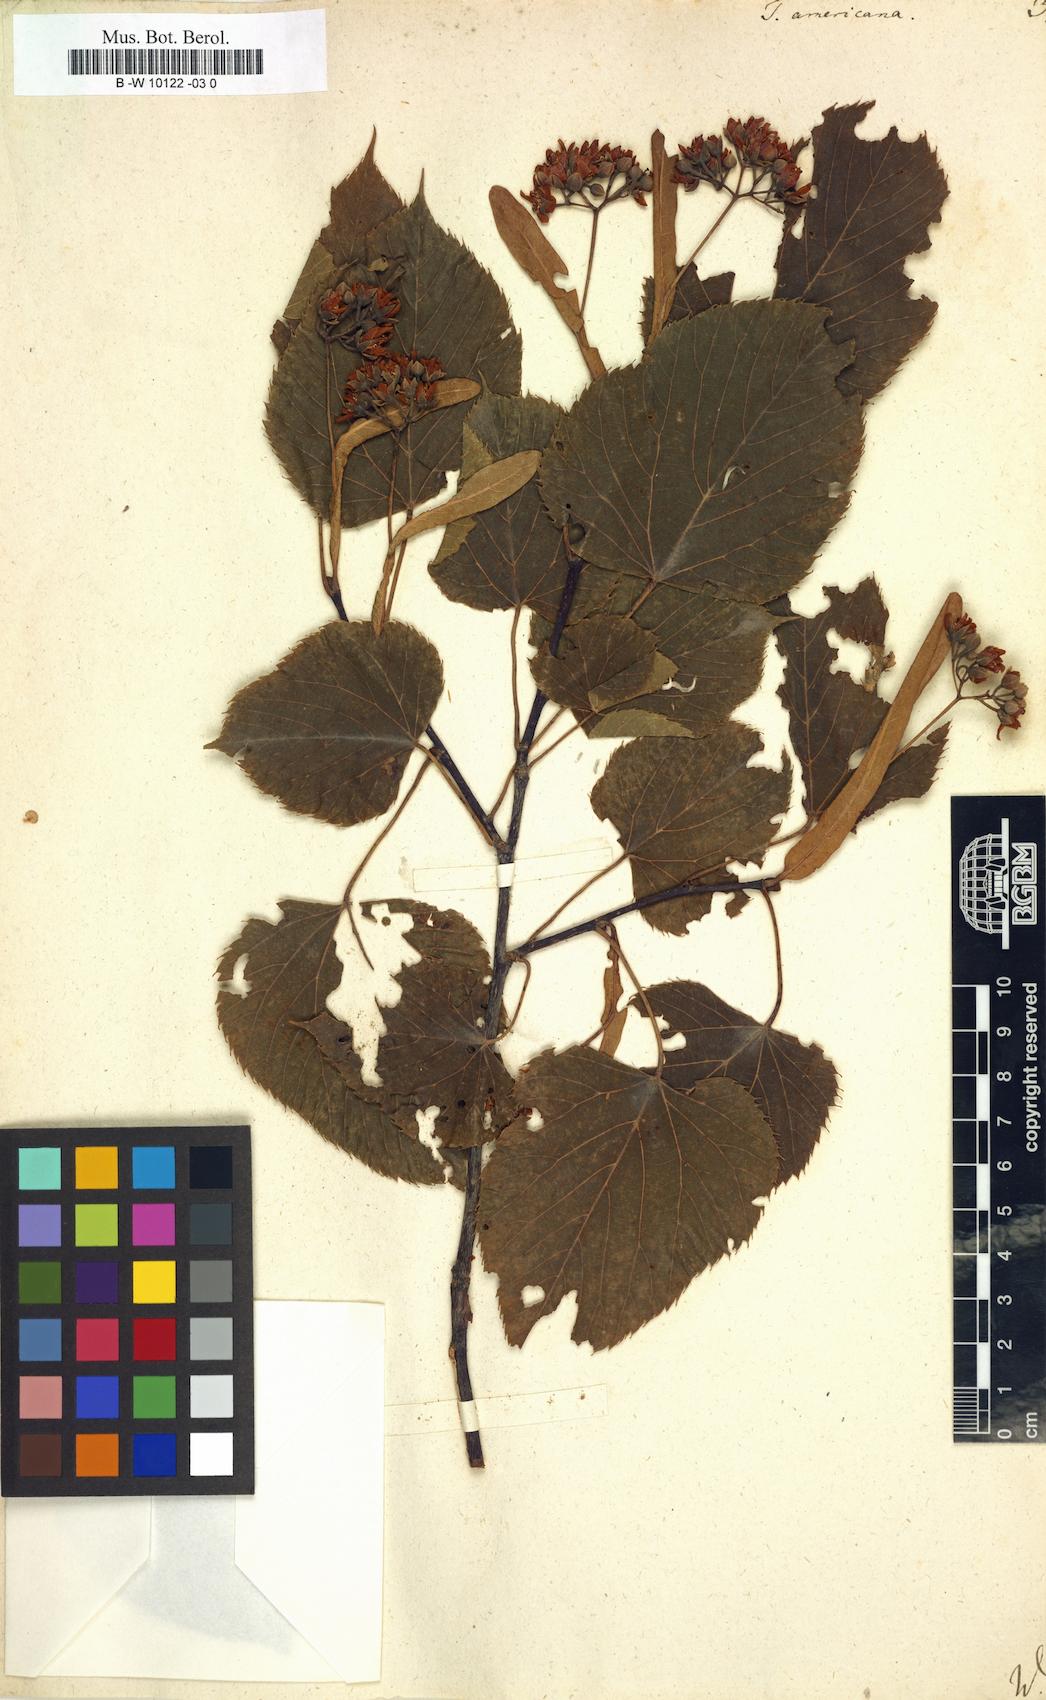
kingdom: Plantae
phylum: Tracheophyta
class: Magnoliopsida
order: Malvales
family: Malvaceae
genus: Tilia
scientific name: Tilia americana
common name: Basswood
